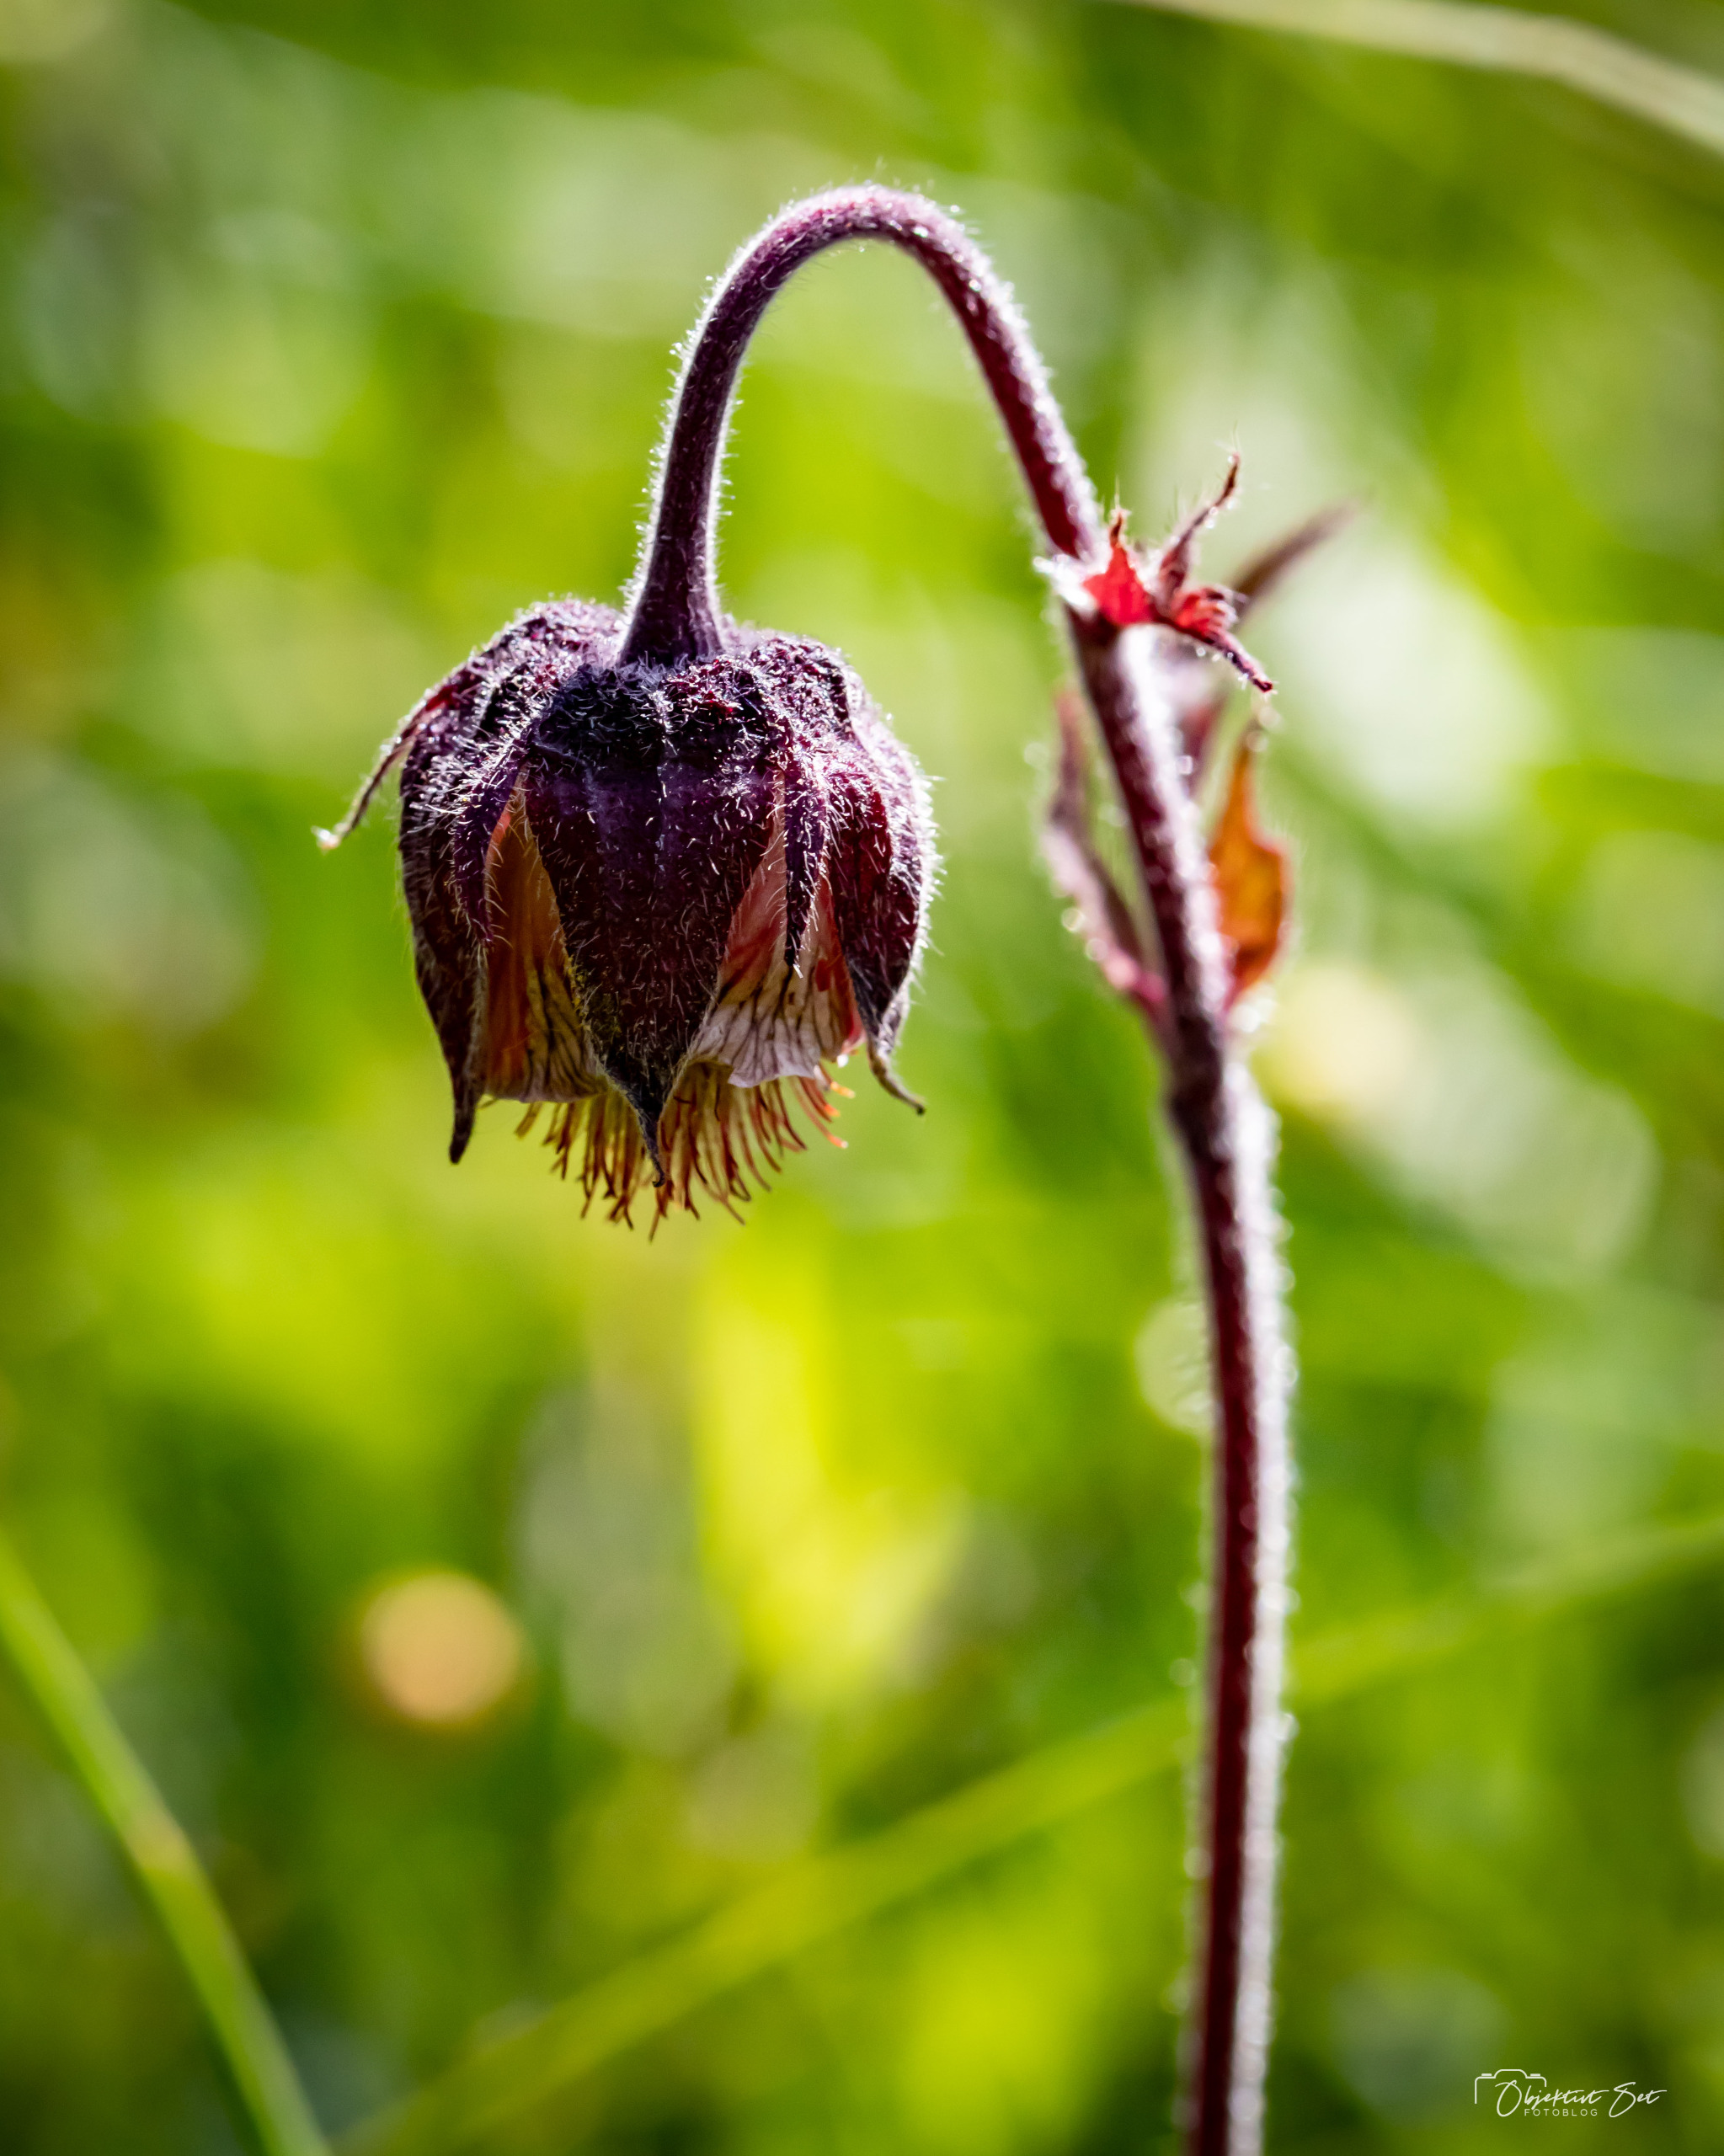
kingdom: Plantae
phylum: Tracheophyta
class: Magnoliopsida
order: Rosales
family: Rosaceae
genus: Geum
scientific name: Geum rivale
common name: Eng-nellikerod
